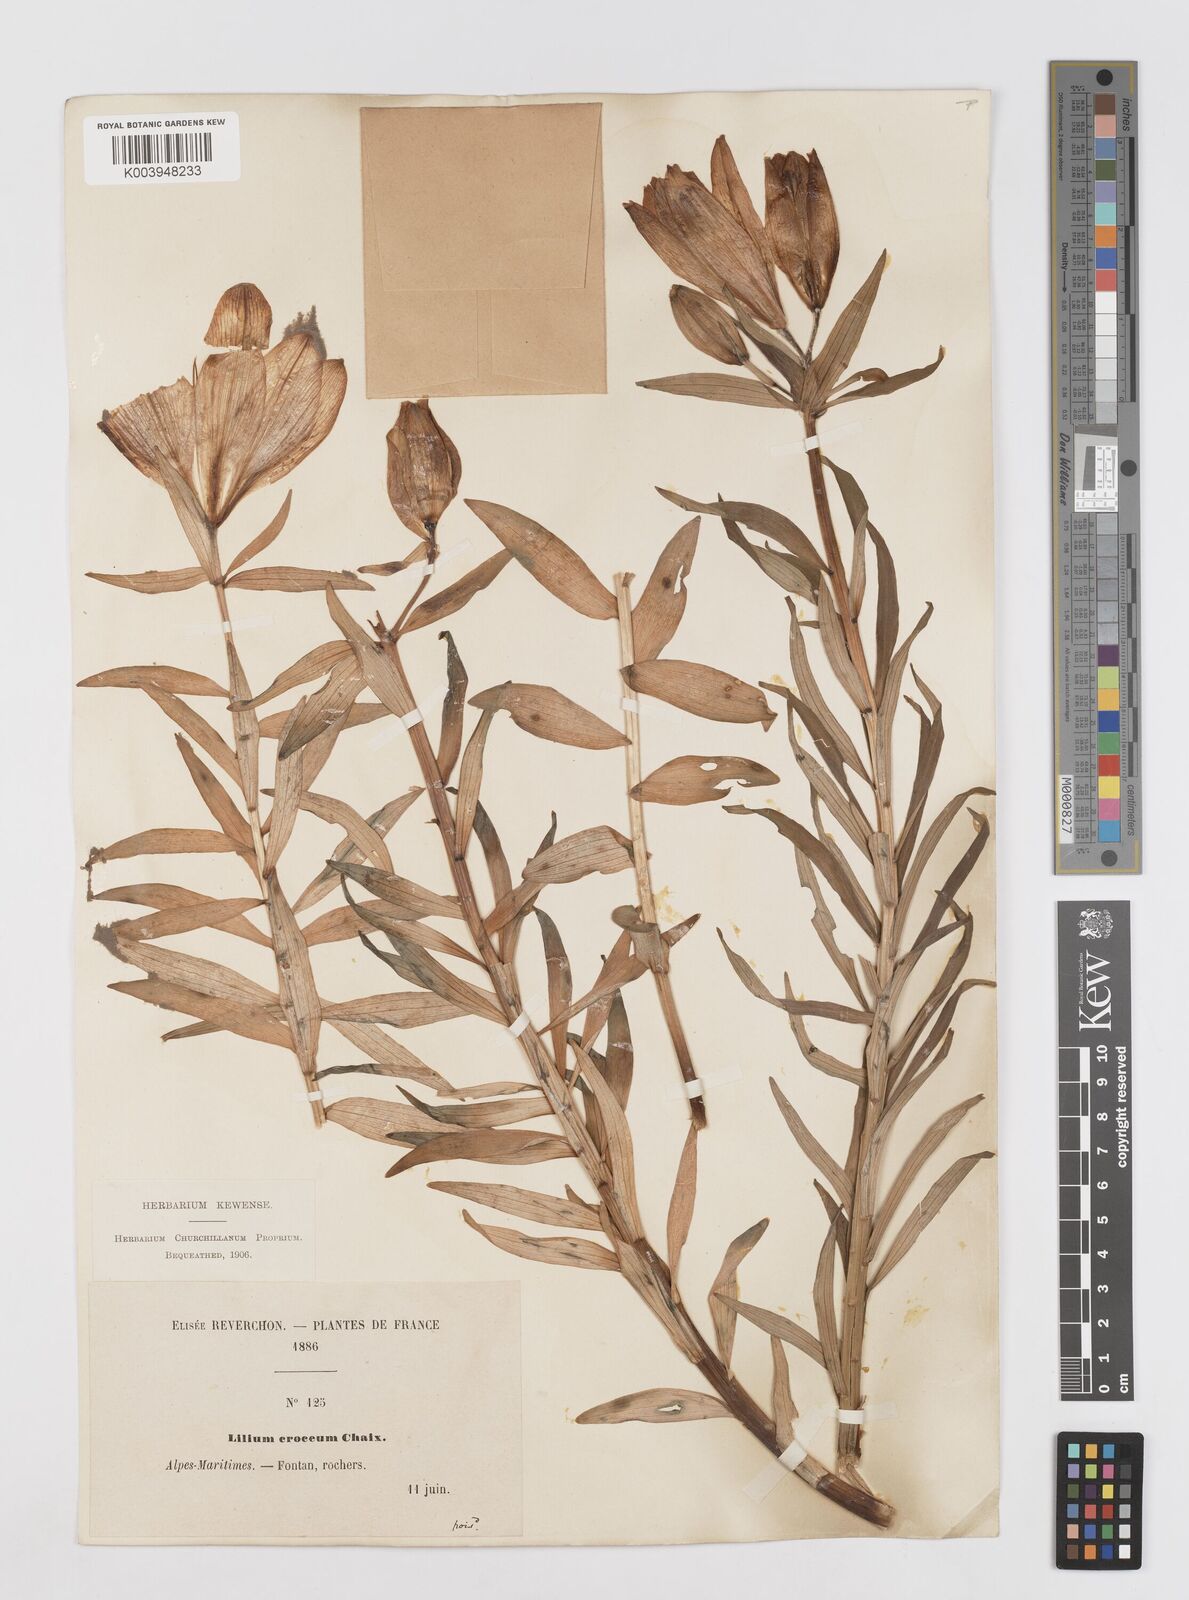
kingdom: Plantae
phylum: Tracheophyta
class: Liliopsida
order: Liliales
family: Liliaceae
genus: Lilium
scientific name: Lilium bulbiferum
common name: Orange lily
